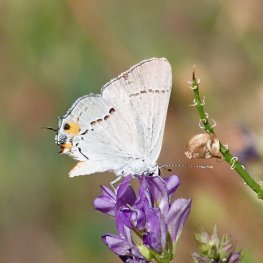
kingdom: Animalia
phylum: Arthropoda
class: Insecta
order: Lepidoptera
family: Lycaenidae
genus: Strymon
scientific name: Strymon melinus
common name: Gray Hairstreak
